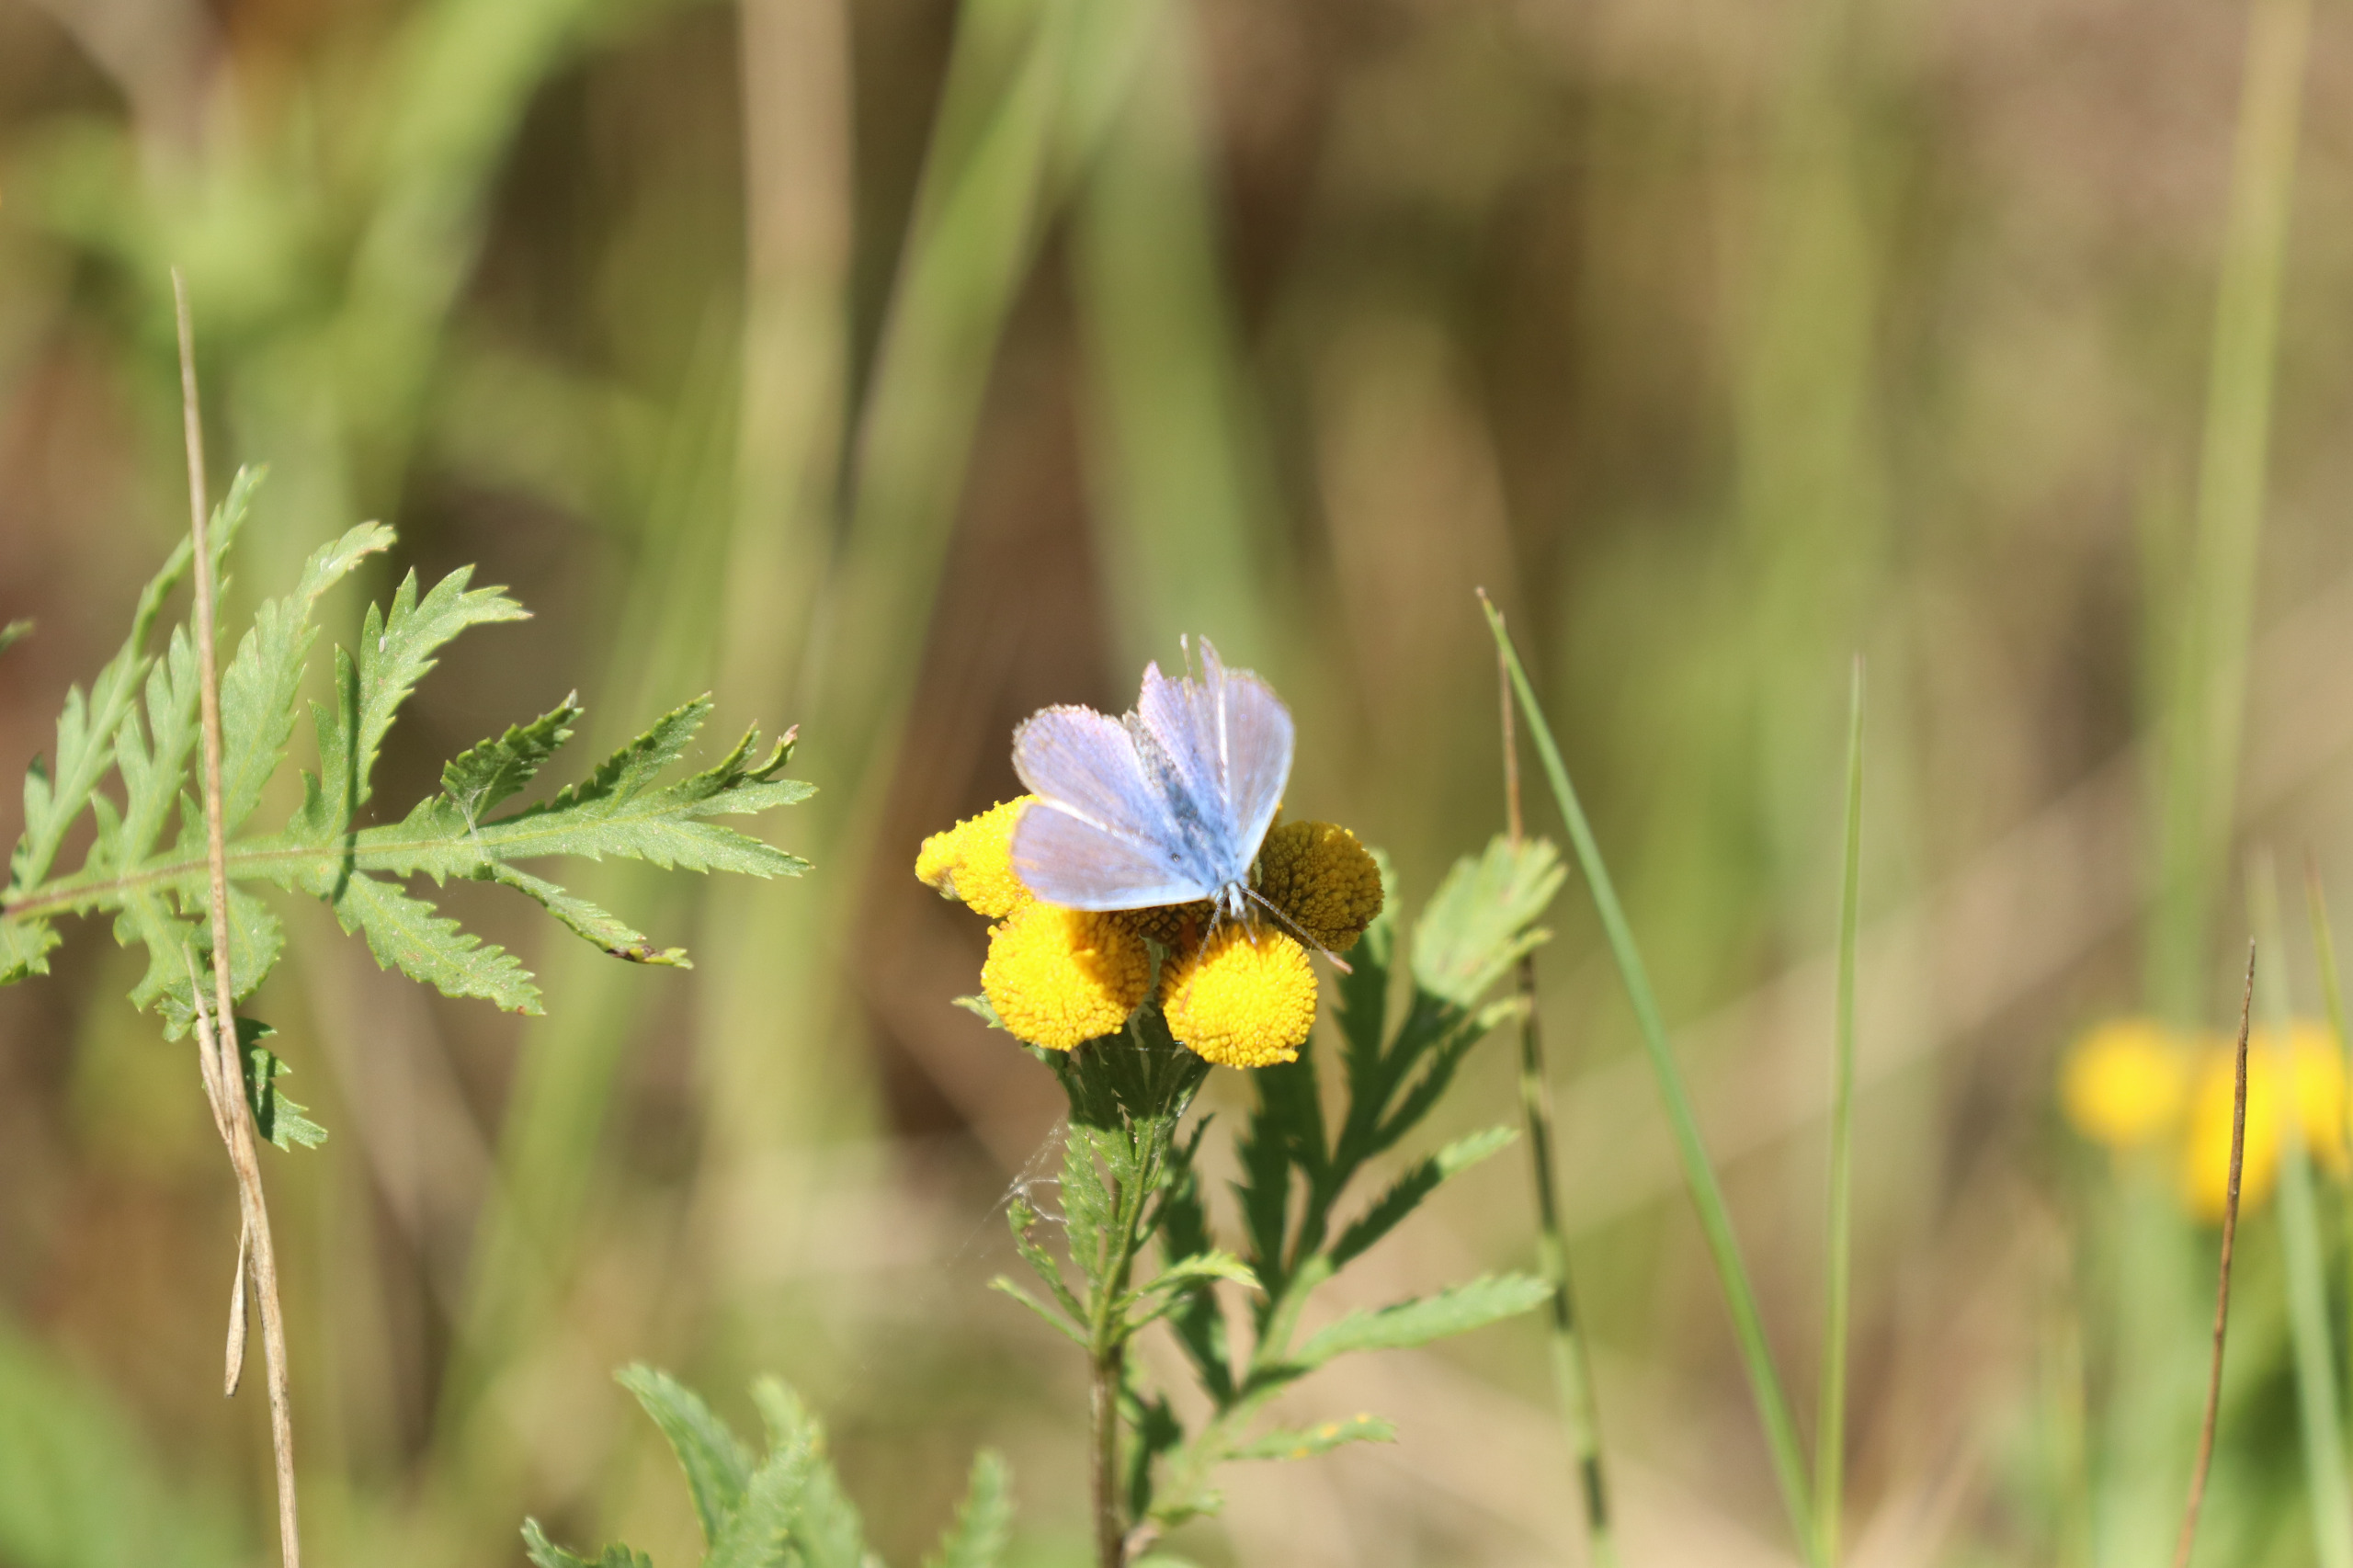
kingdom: Animalia
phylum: Arthropoda
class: Insecta
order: Lepidoptera
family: Lycaenidae
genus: Polyommatus
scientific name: Polyommatus icarus
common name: Almindelig blåfugl
